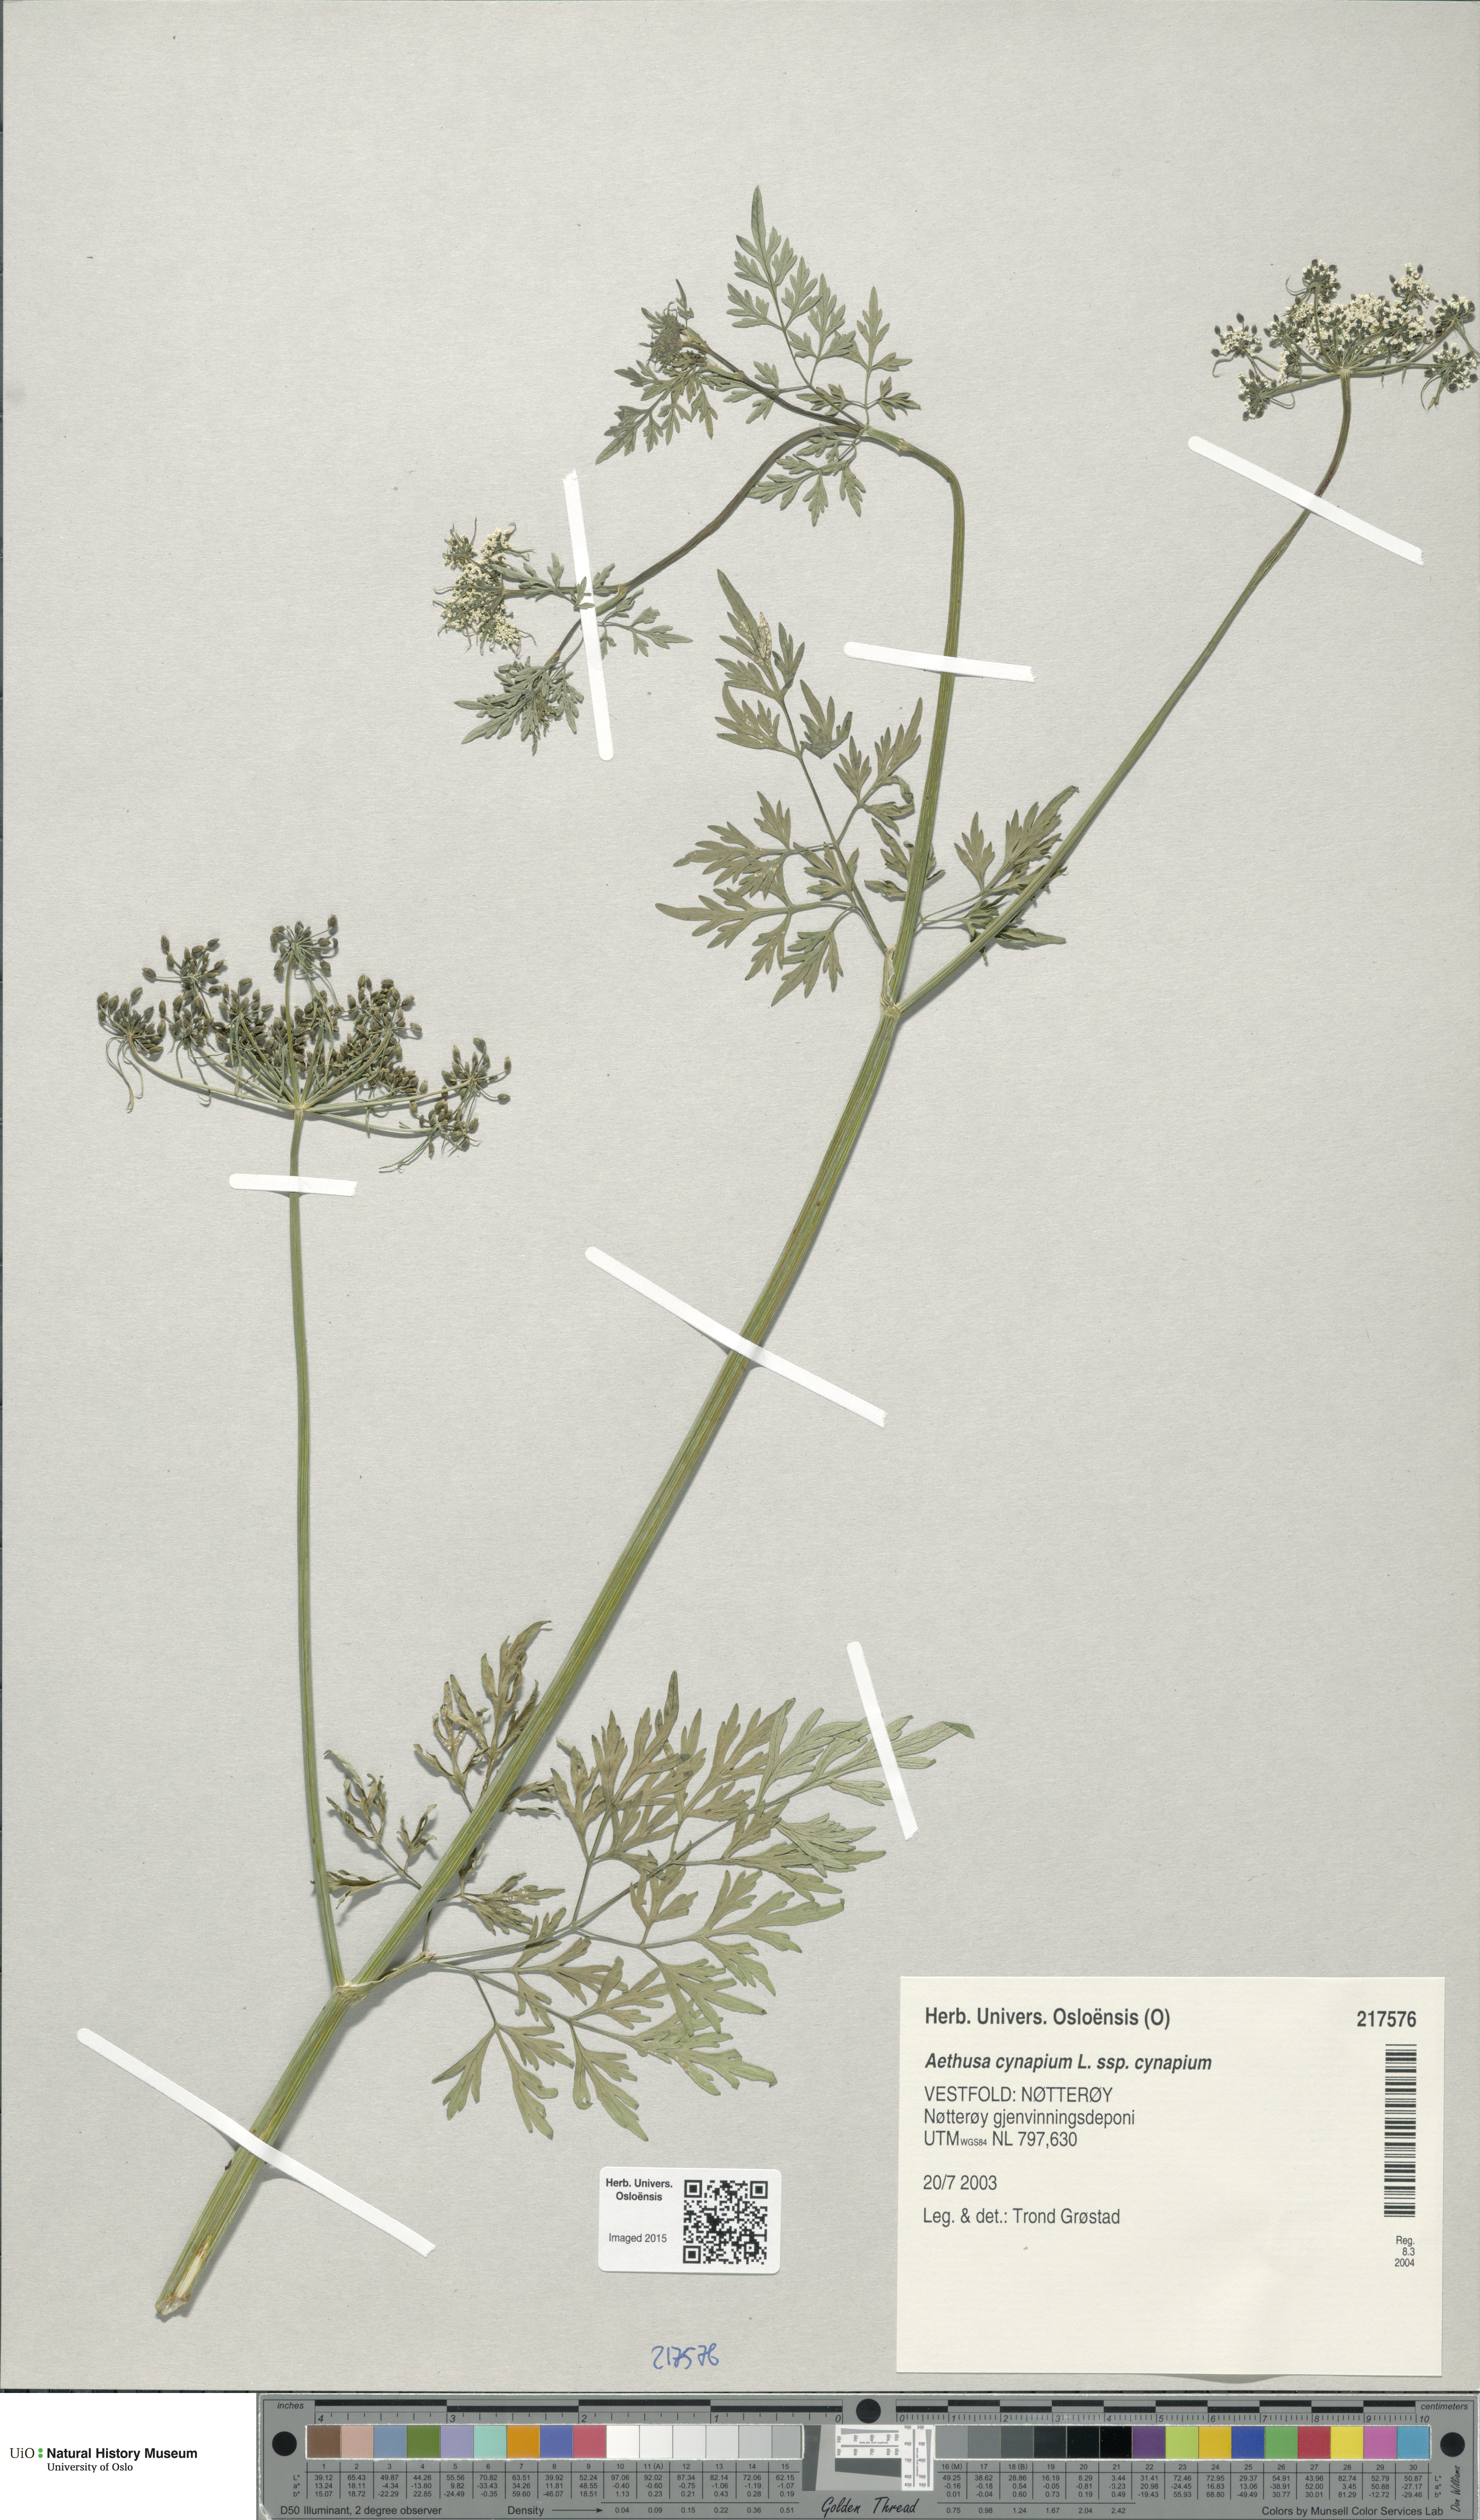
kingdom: Plantae
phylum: Tracheophyta
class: Magnoliopsida
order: Apiales
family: Apiaceae
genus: Aethusa
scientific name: Aethusa cynapium
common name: Fool's parsley
